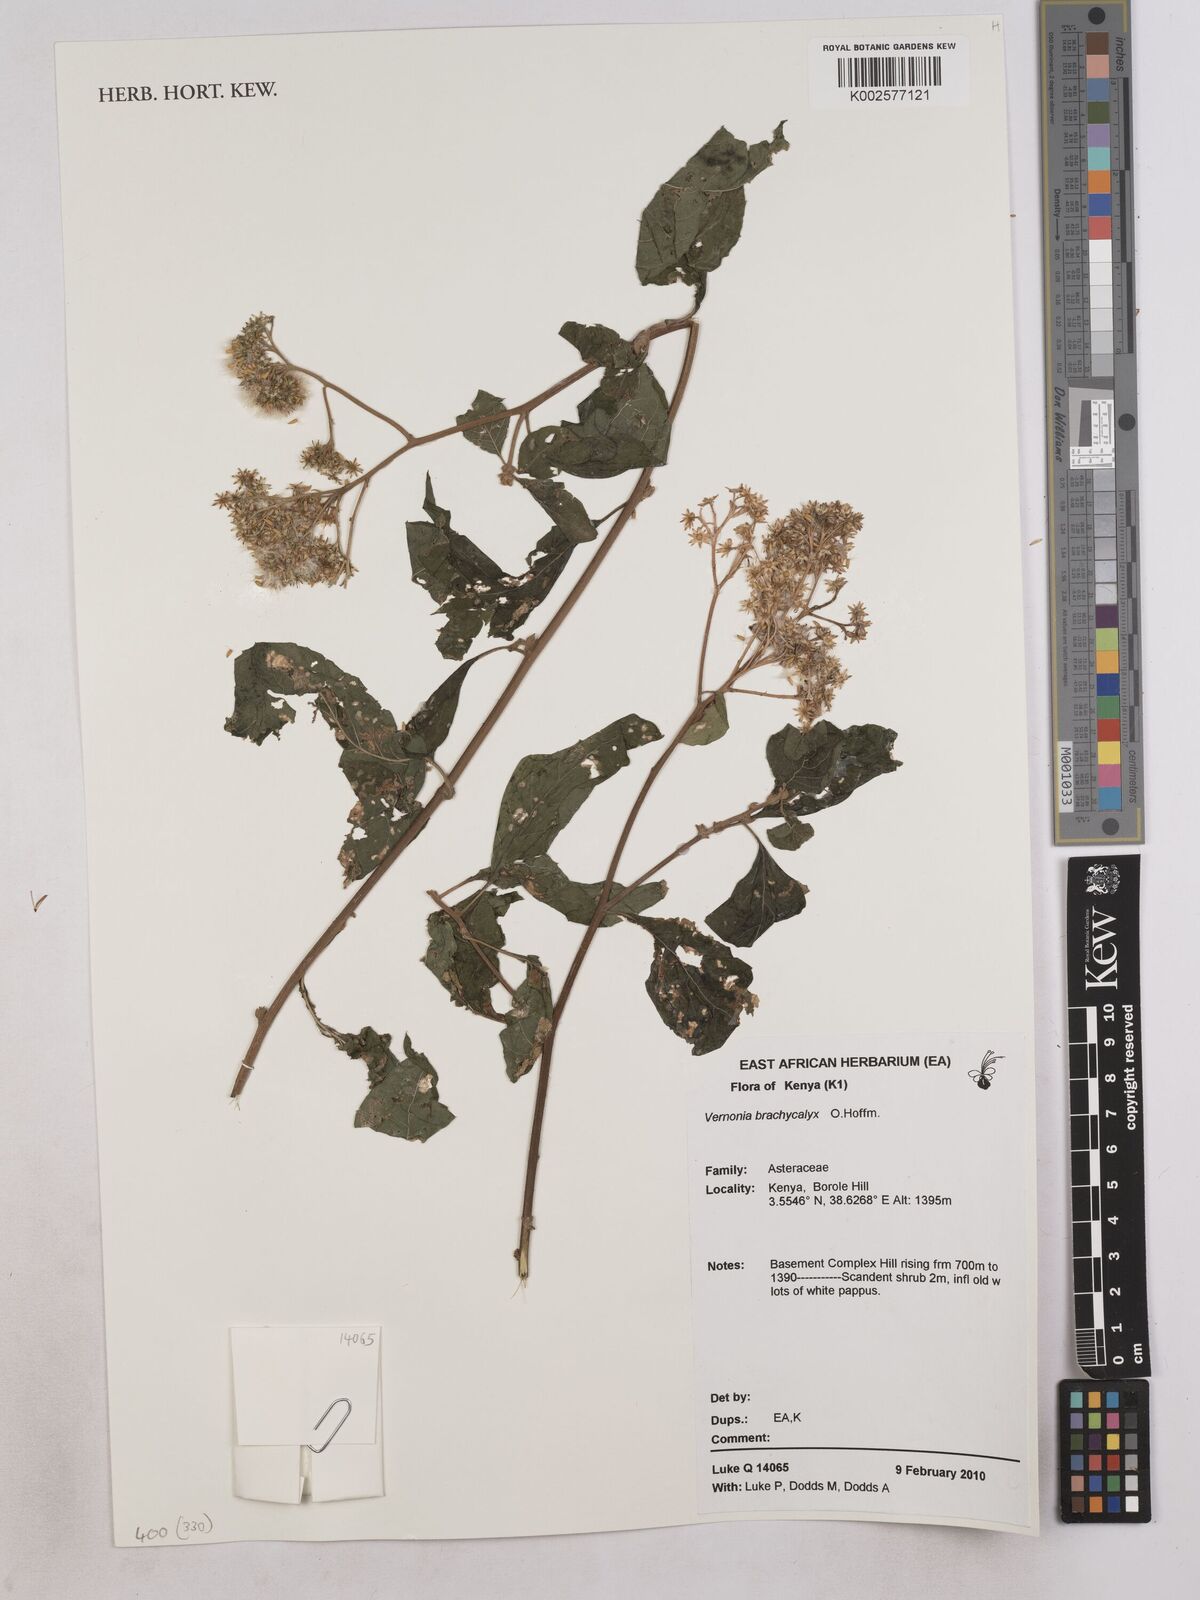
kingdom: Plantae
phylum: Tracheophyta
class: Magnoliopsida
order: Asterales
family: Asteraceae
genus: Hoffmannanthus
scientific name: Hoffmannanthus abbotianus
